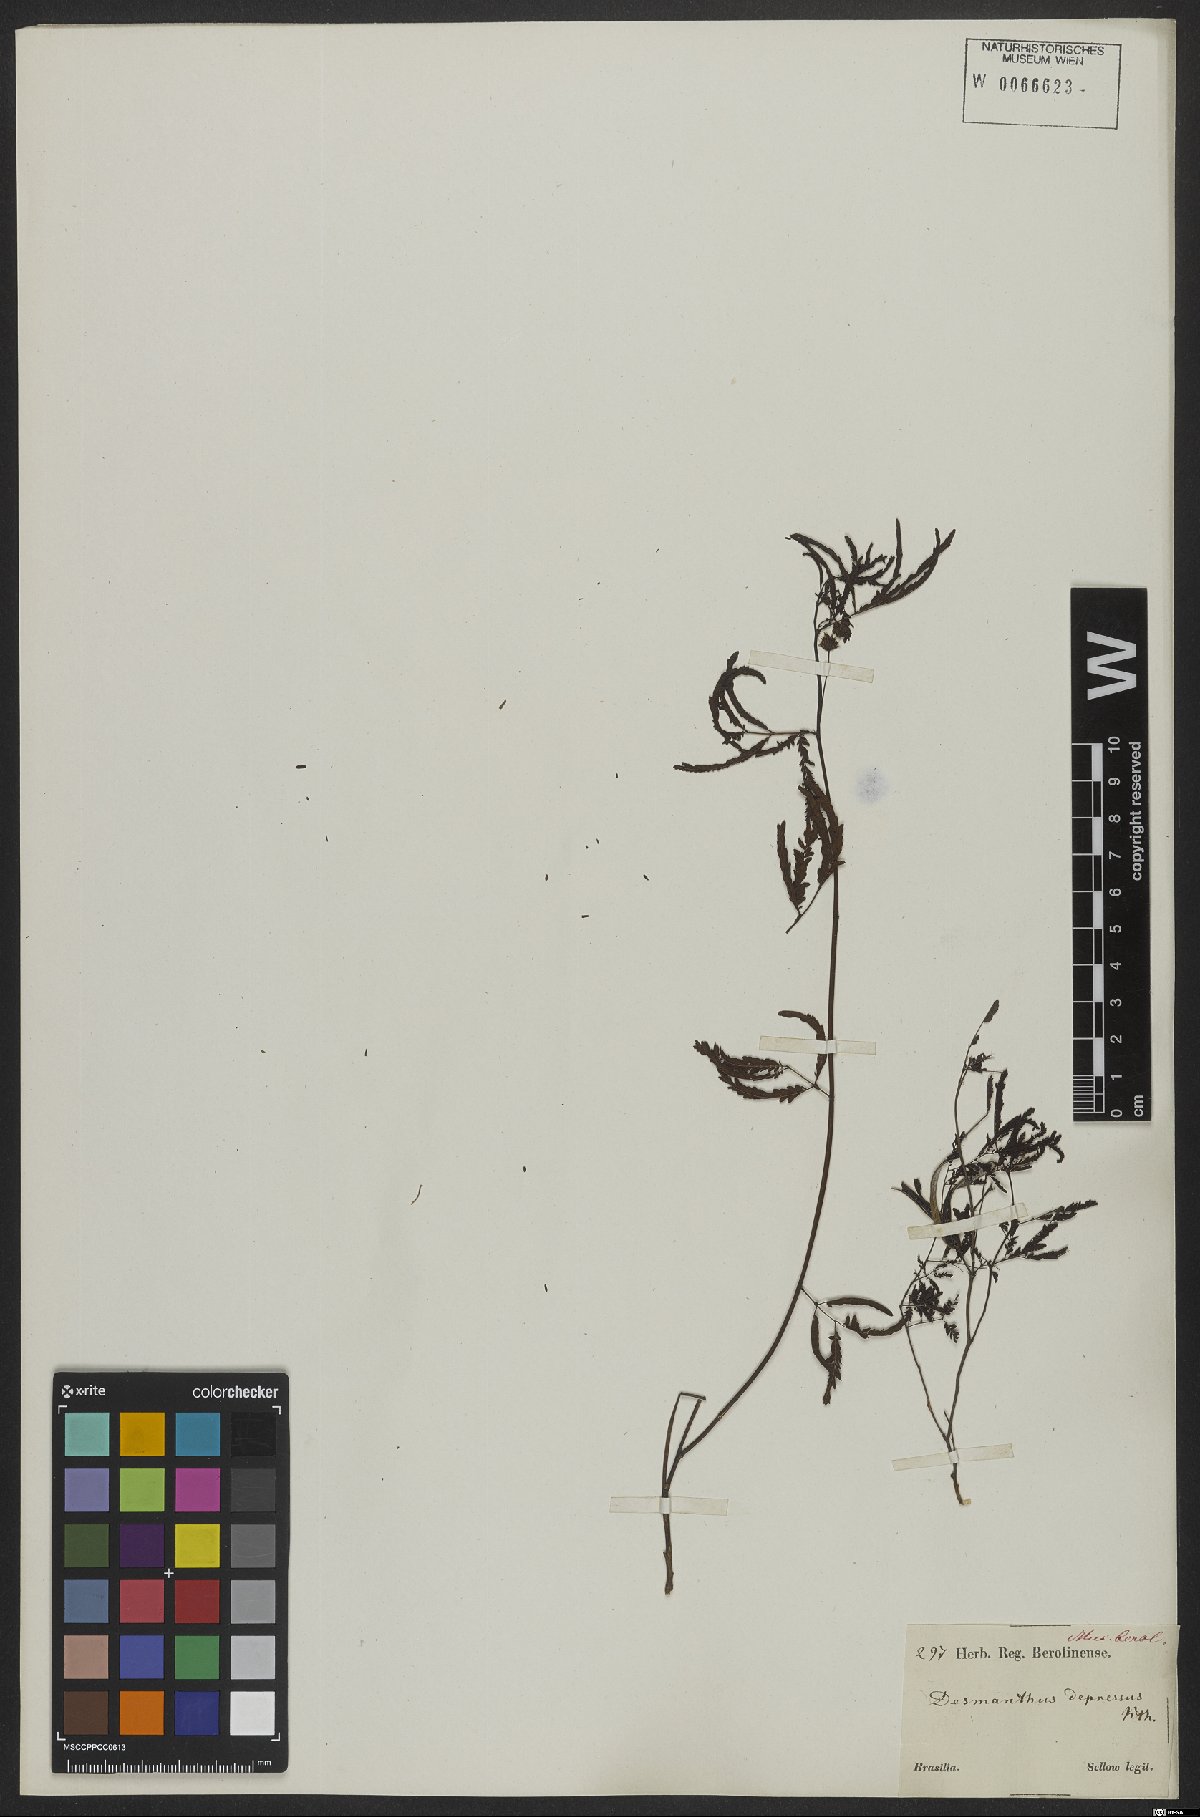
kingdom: Plantae
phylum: Tracheophyta
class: Magnoliopsida
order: Fabales
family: Fabaceae
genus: Desmanthus
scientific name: Desmanthus virgatus
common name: Wild tantan
